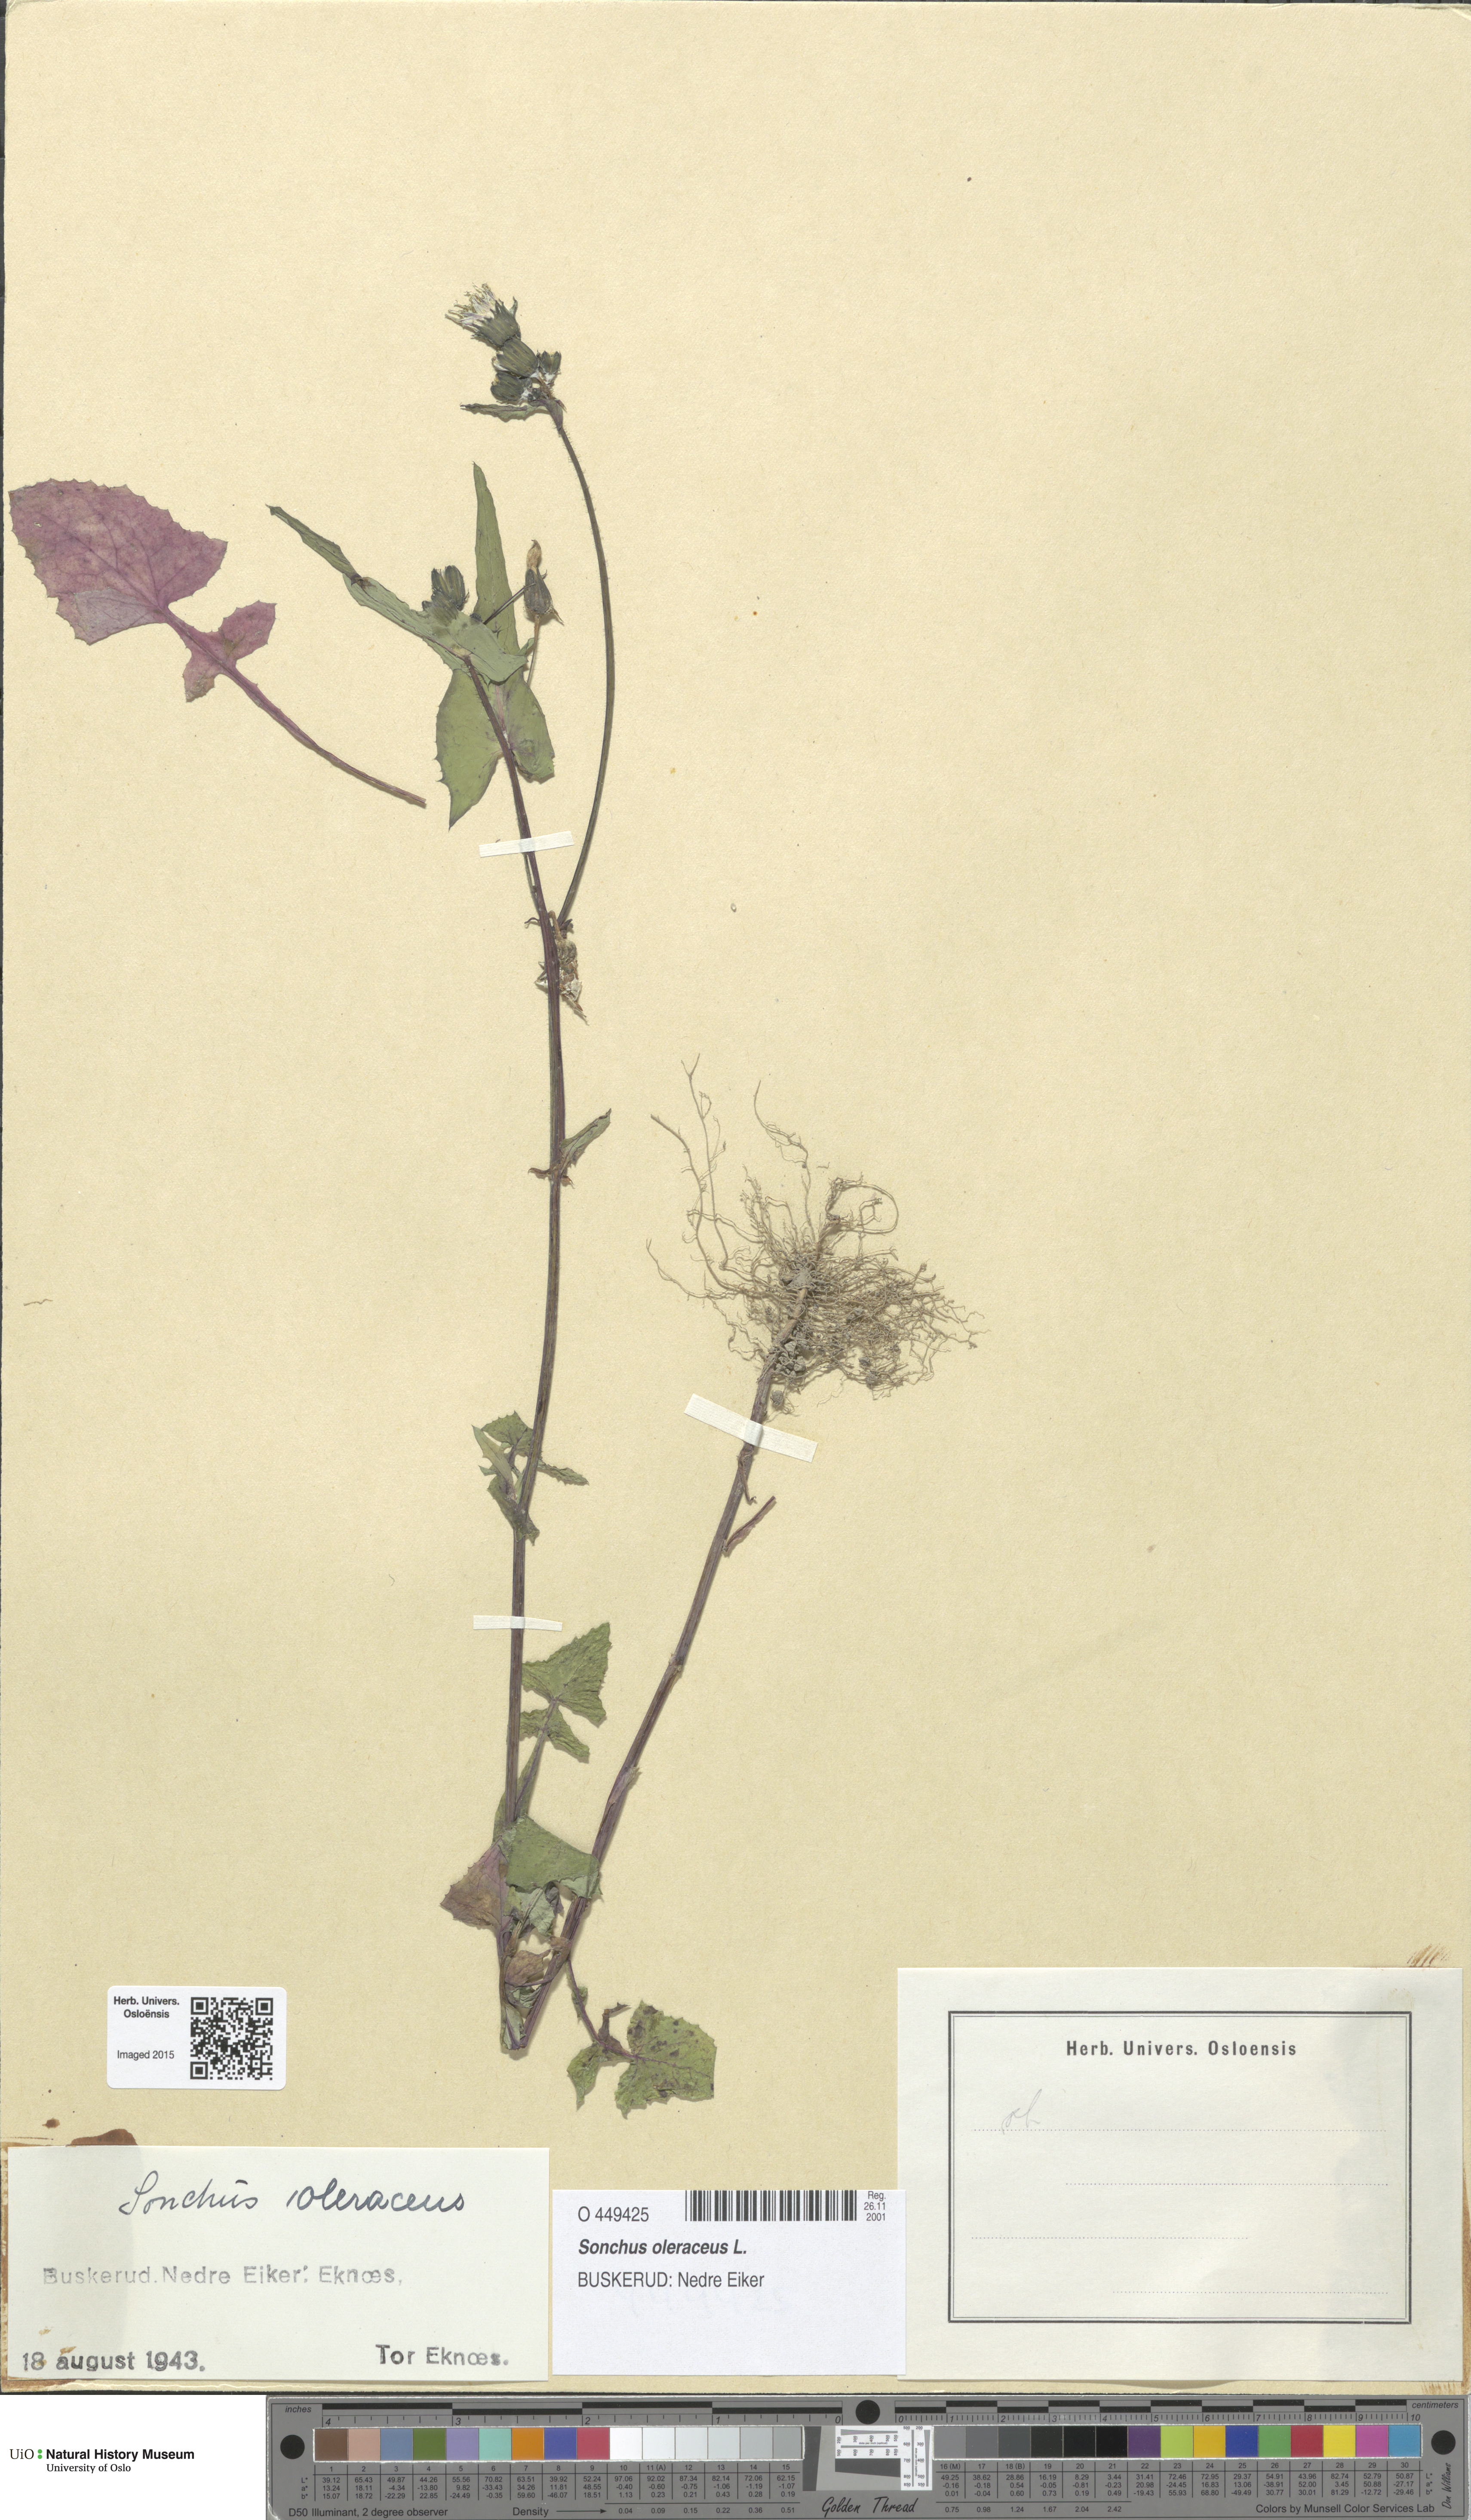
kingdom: Plantae
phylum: Tracheophyta
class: Magnoliopsida
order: Asterales
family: Asteraceae
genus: Sonchus
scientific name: Sonchus oleraceus
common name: Common sowthistle
